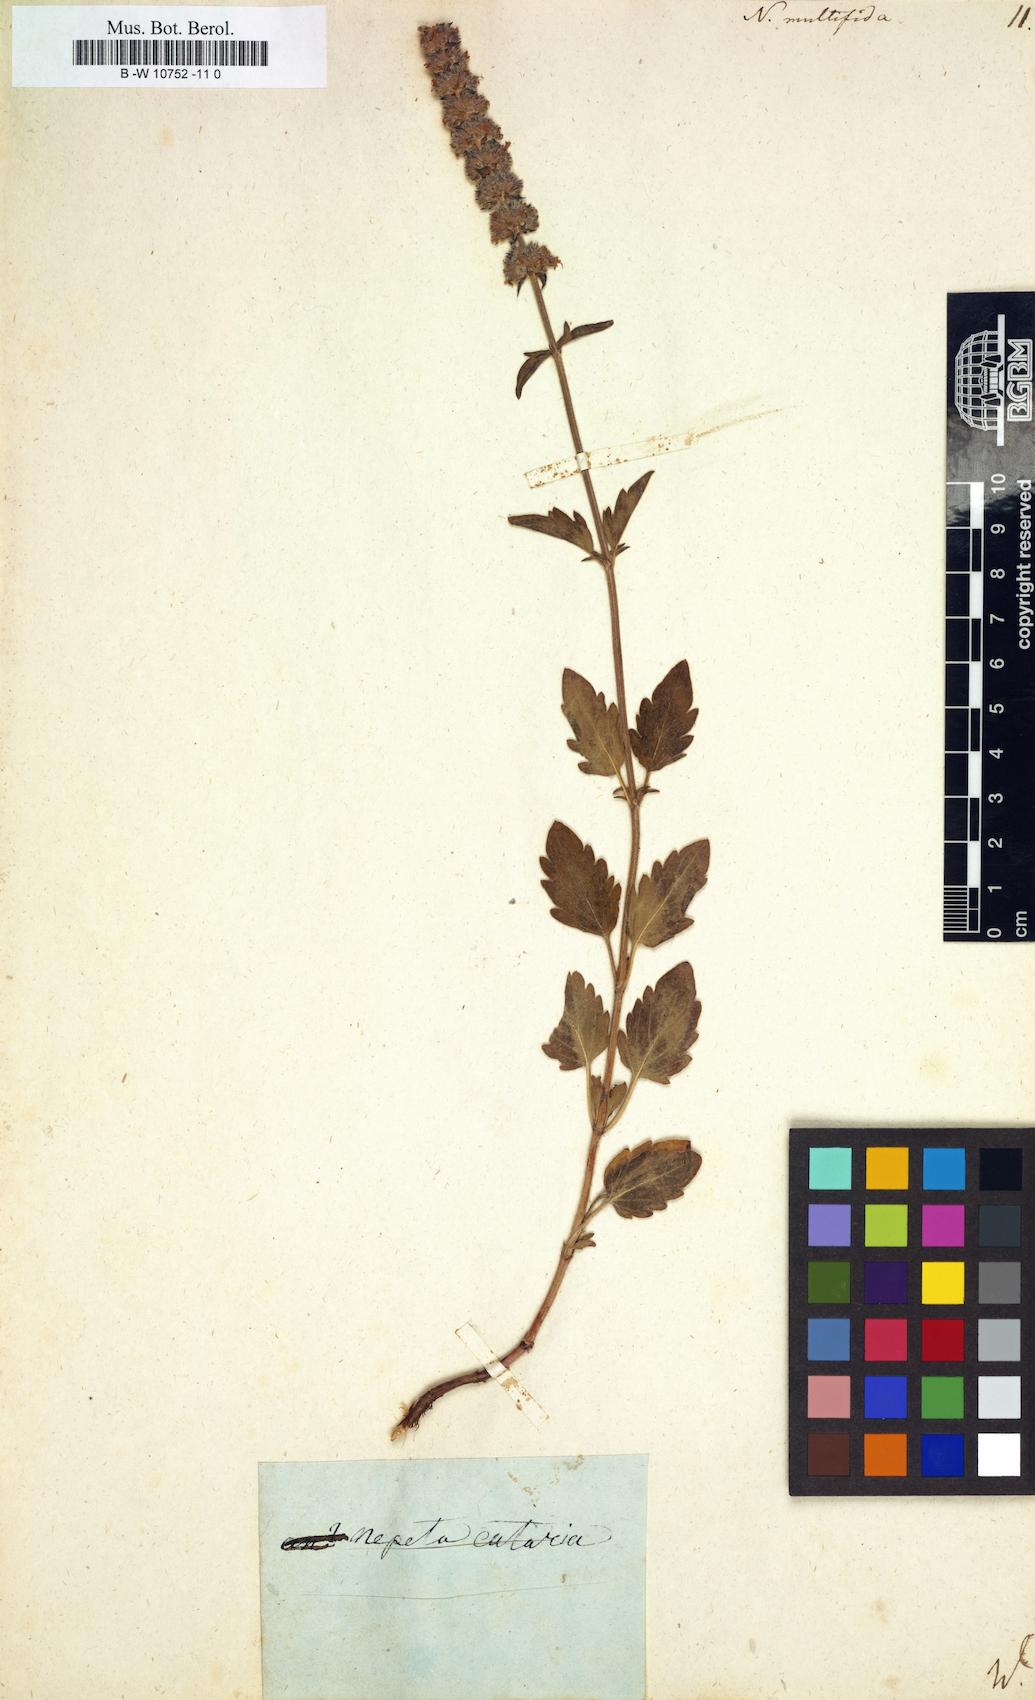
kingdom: Plantae
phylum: Tracheophyta
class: Magnoliopsida
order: Lamiales
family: Lamiaceae
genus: Nepeta
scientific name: Nepeta multifida
